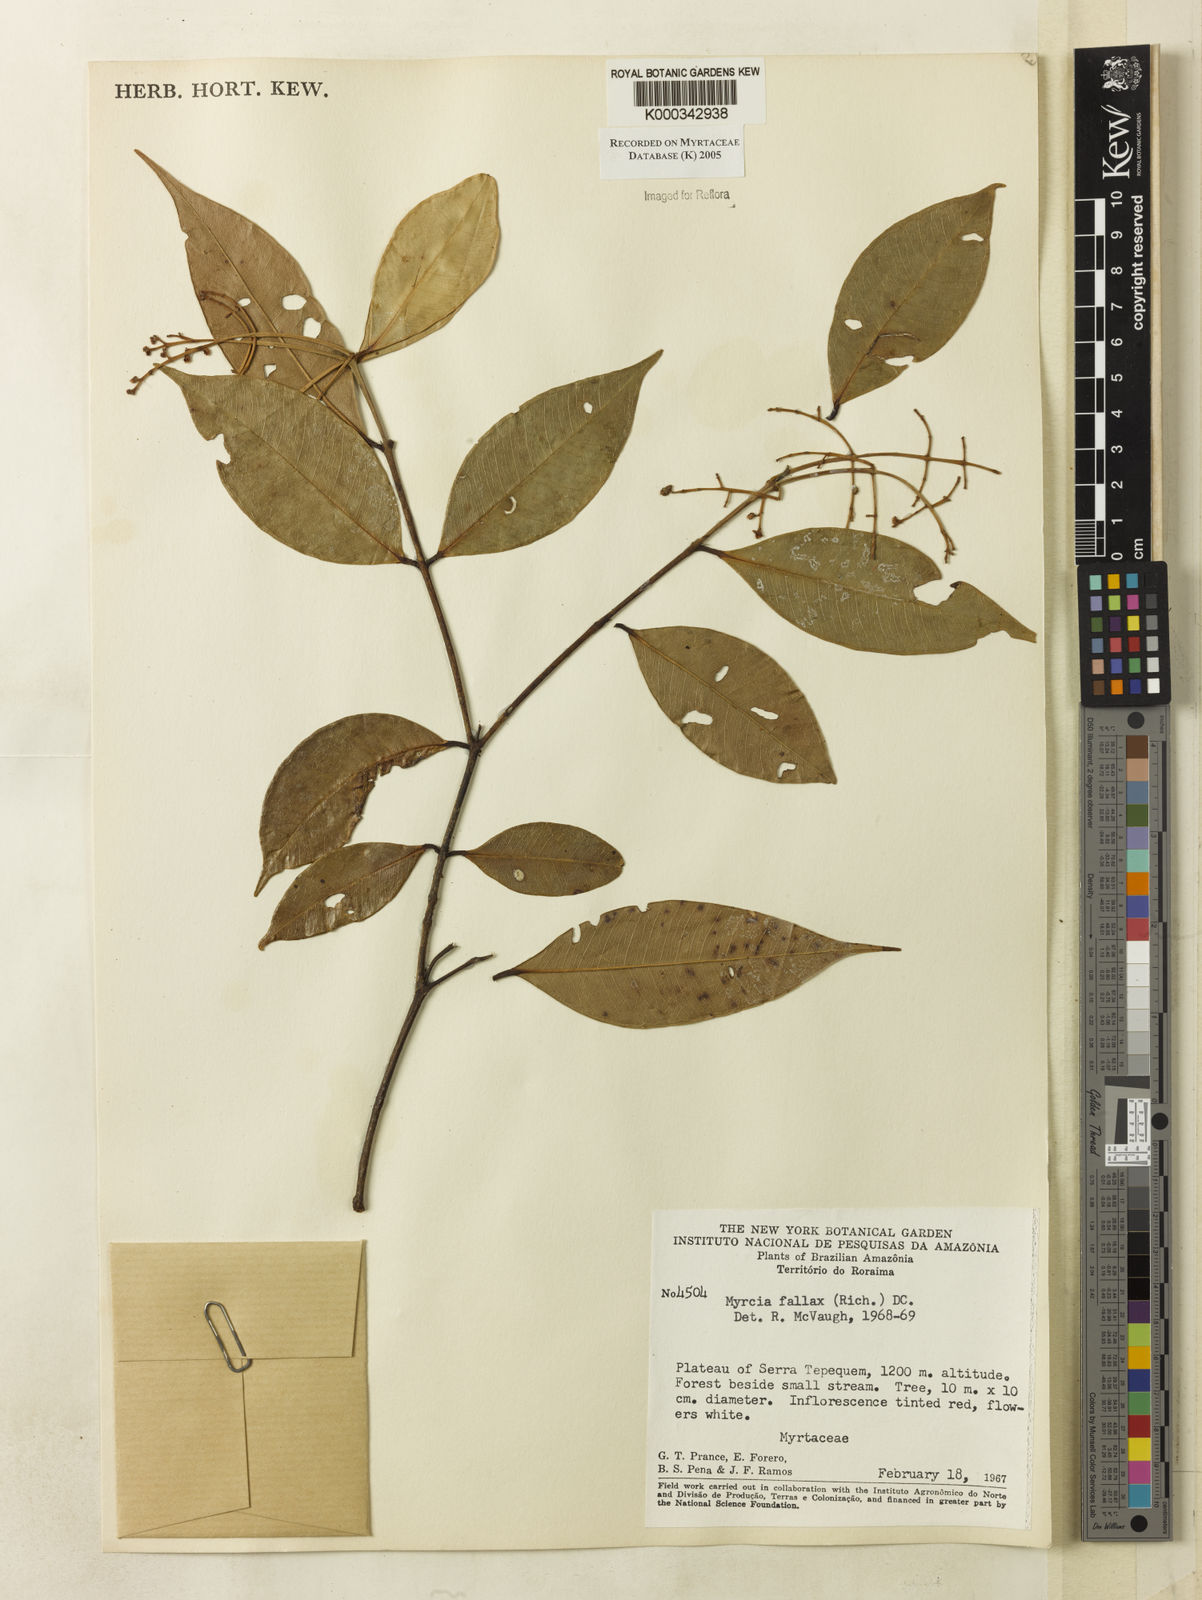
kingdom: Plantae
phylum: Tracheophyta
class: Magnoliopsida
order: Myrtales
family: Myrtaceae
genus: Myrcia
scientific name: Myrcia splendens
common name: Surinam cherry
